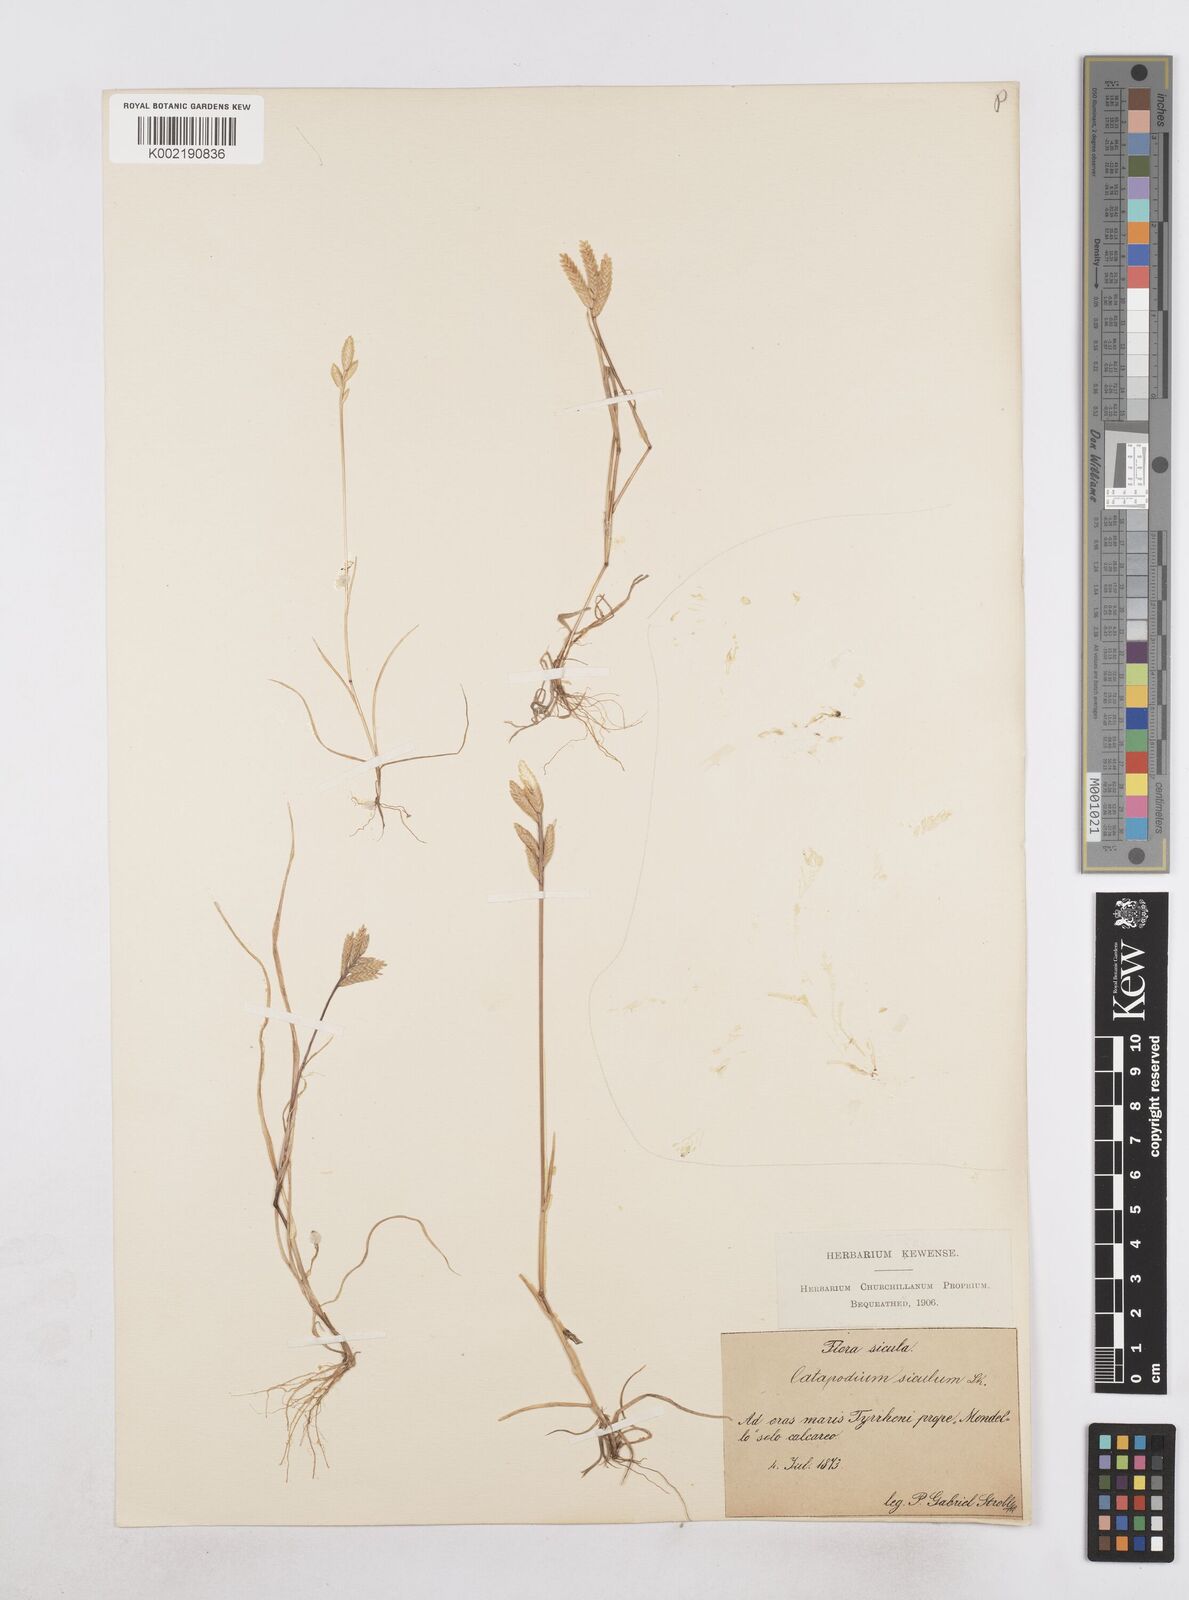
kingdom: Plantae
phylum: Tracheophyta
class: Liliopsida
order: Poales
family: Poaceae
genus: Desmazeria
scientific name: Desmazeria sicula
